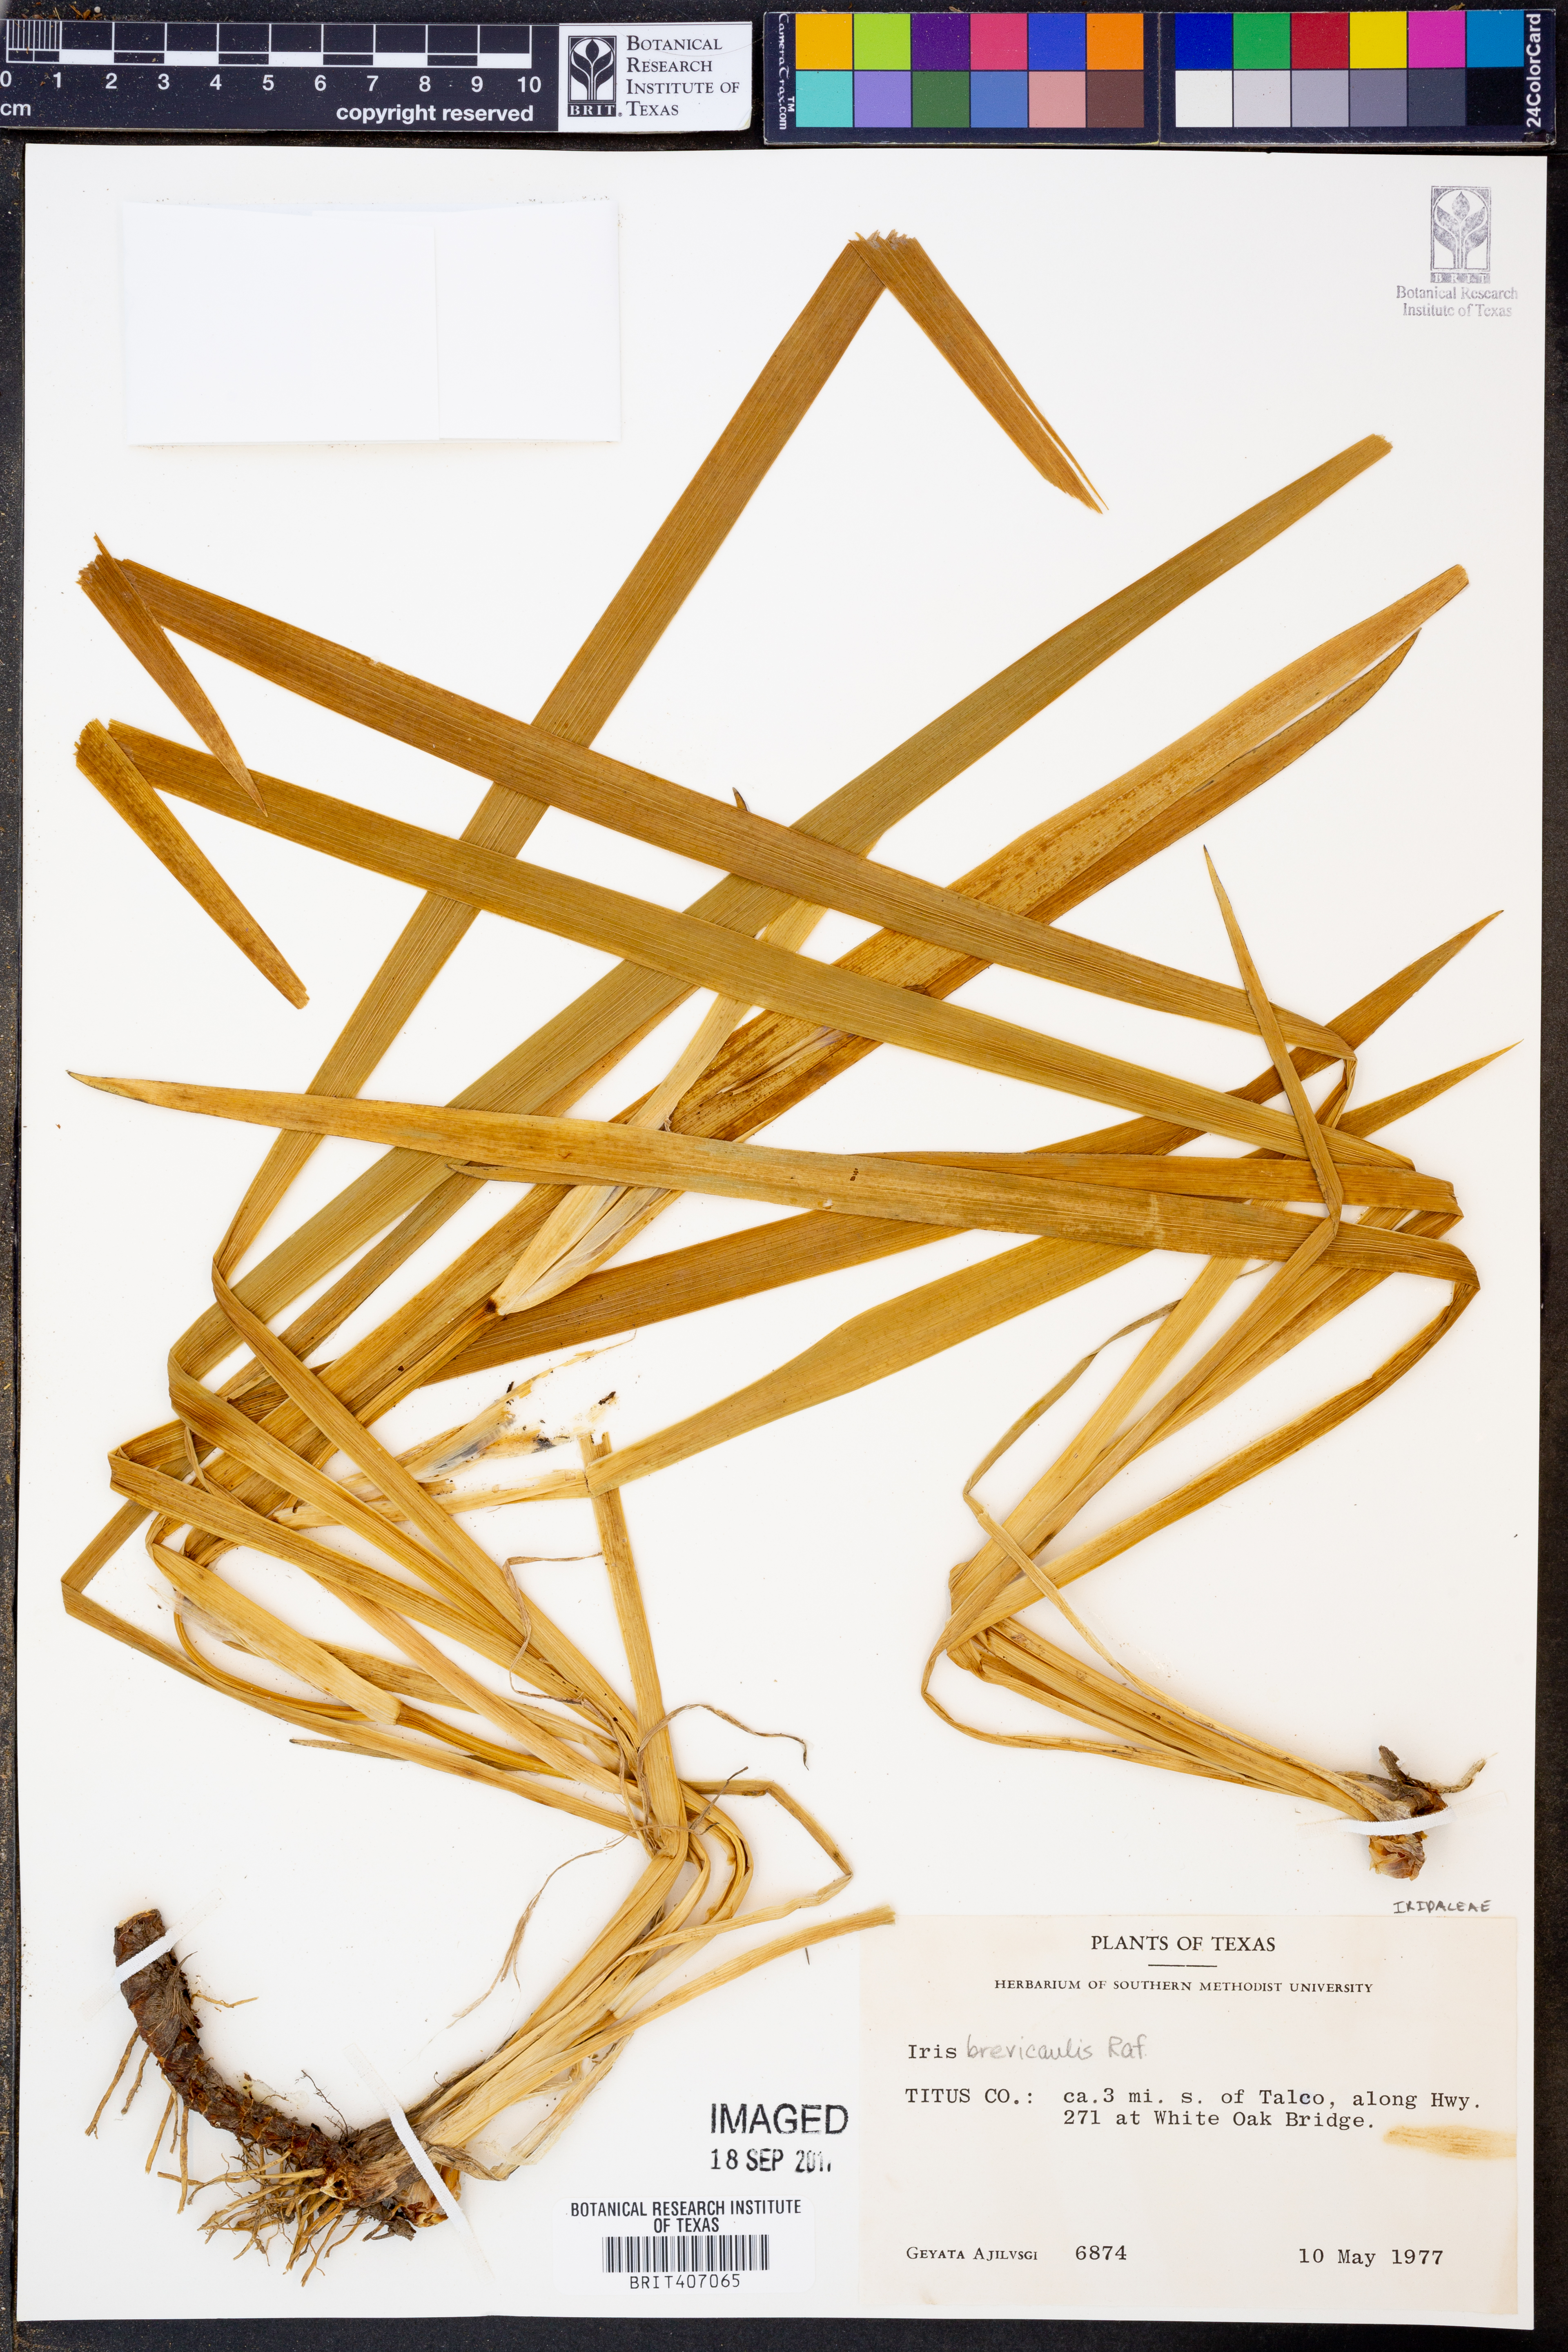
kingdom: Plantae
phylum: Tracheophyta
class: Liliopsida
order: Asparagales
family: Iridaceae
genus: Iris
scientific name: Iris brevicaulis
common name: Zigzag iris
